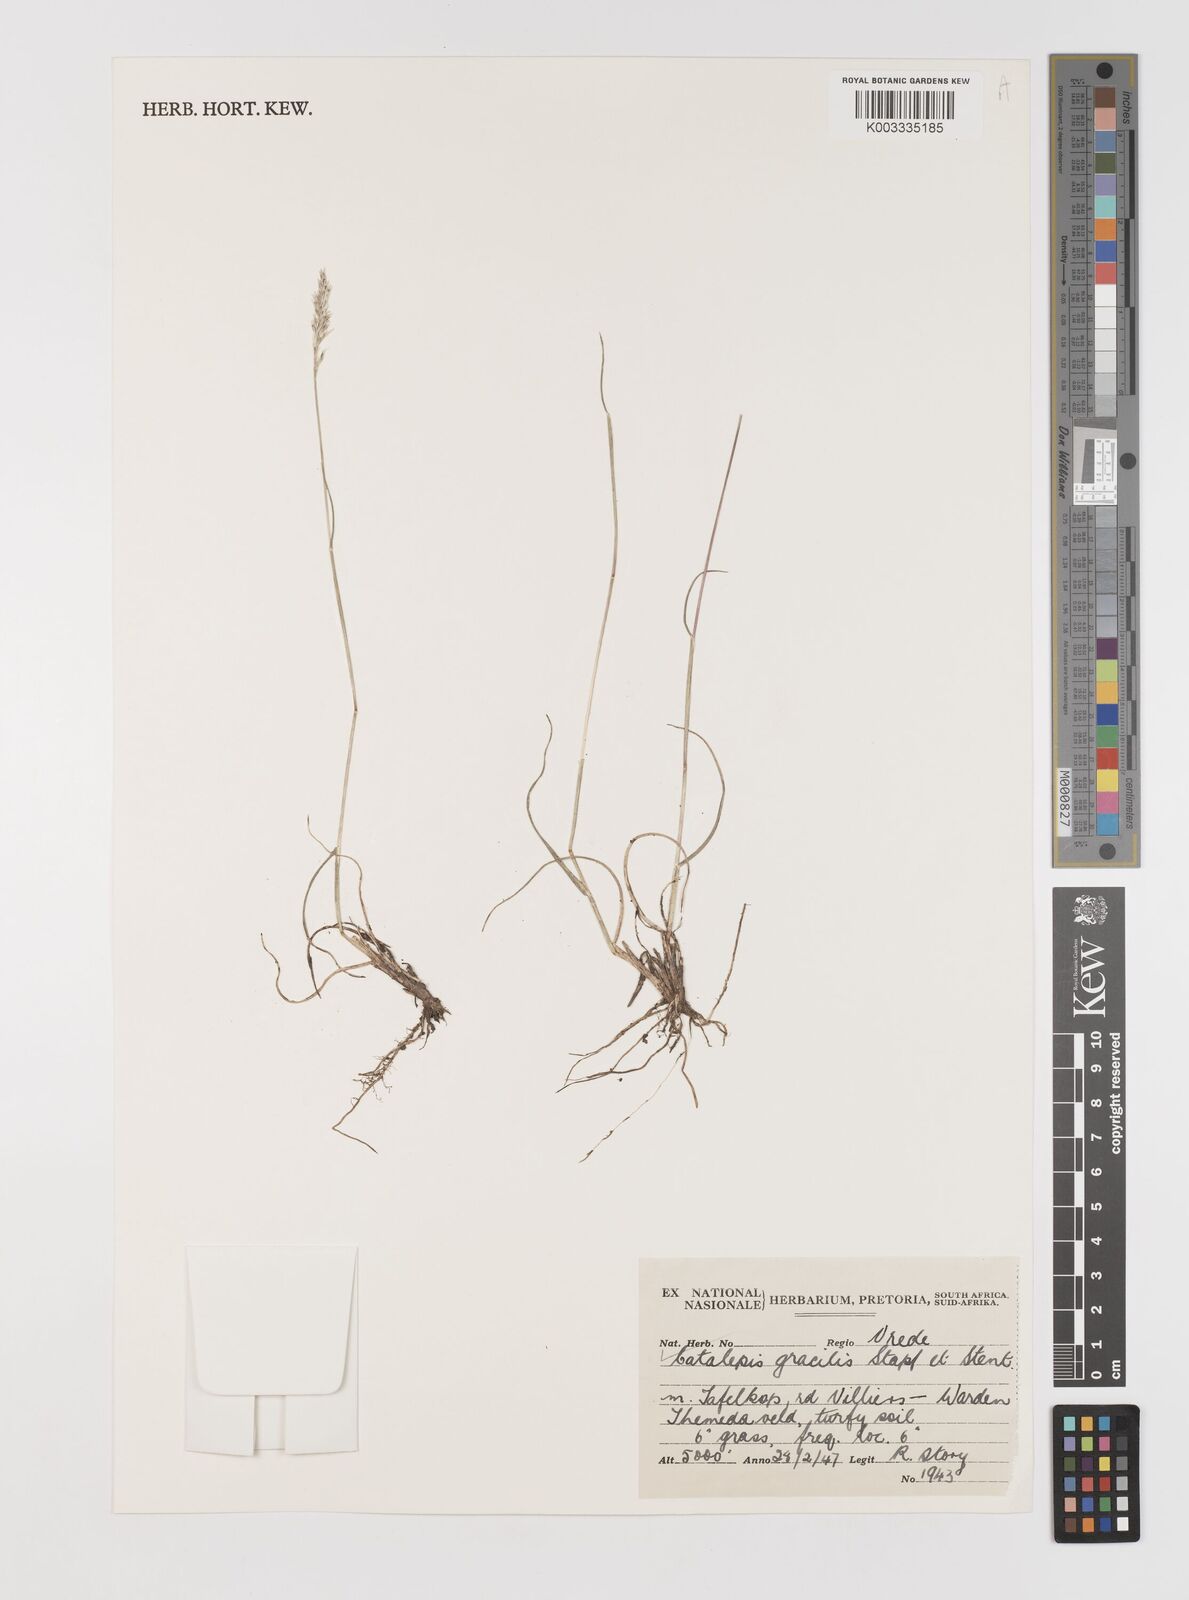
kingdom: Plantae
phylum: Tracheophyta
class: Liliopsida
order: Poales
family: Poaceae
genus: Catalepis
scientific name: Catalepis gracilis
